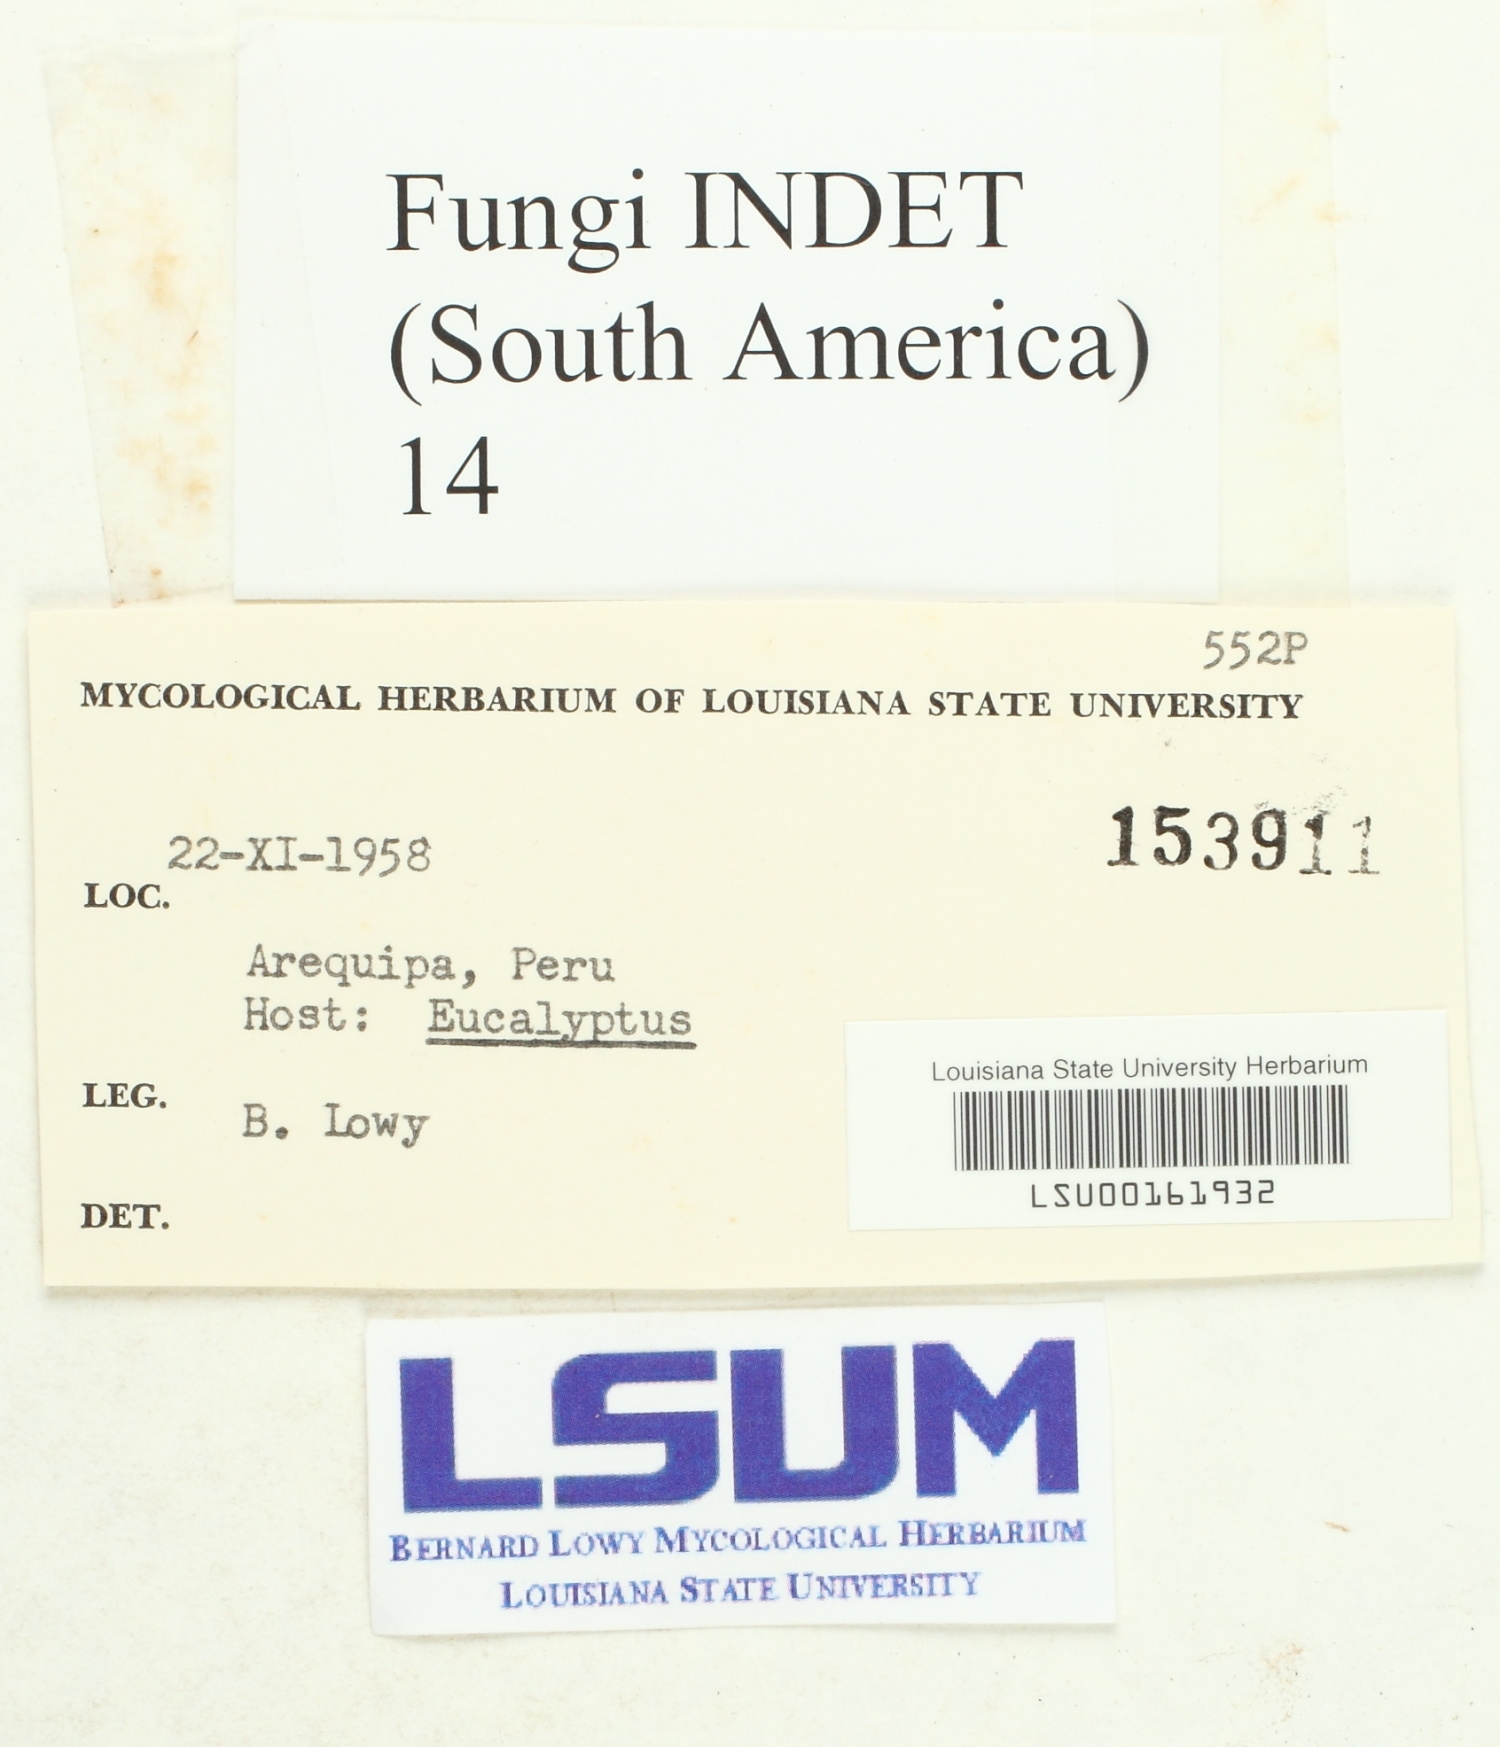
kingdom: Fungi
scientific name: Fungi
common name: Fungi
